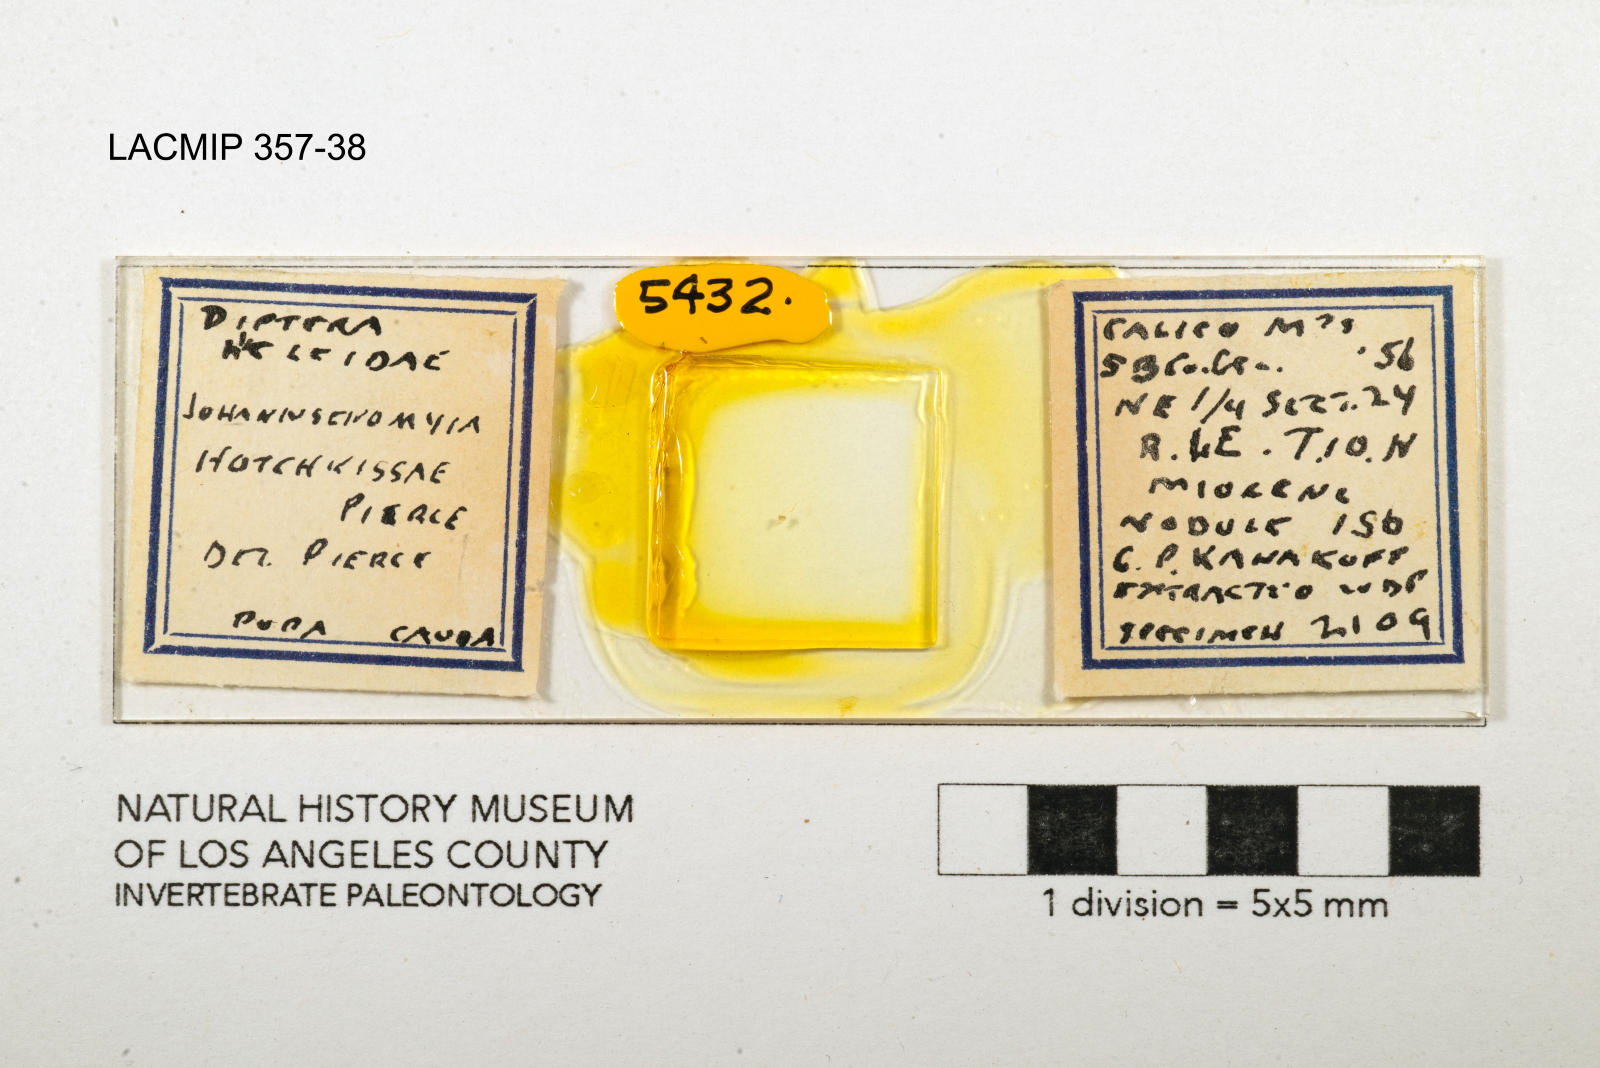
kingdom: Animalia
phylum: Arthropoda
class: Insecta
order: Diptera
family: Ceratopogonidae
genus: Johannsenomyia
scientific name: Johannsenomyia
